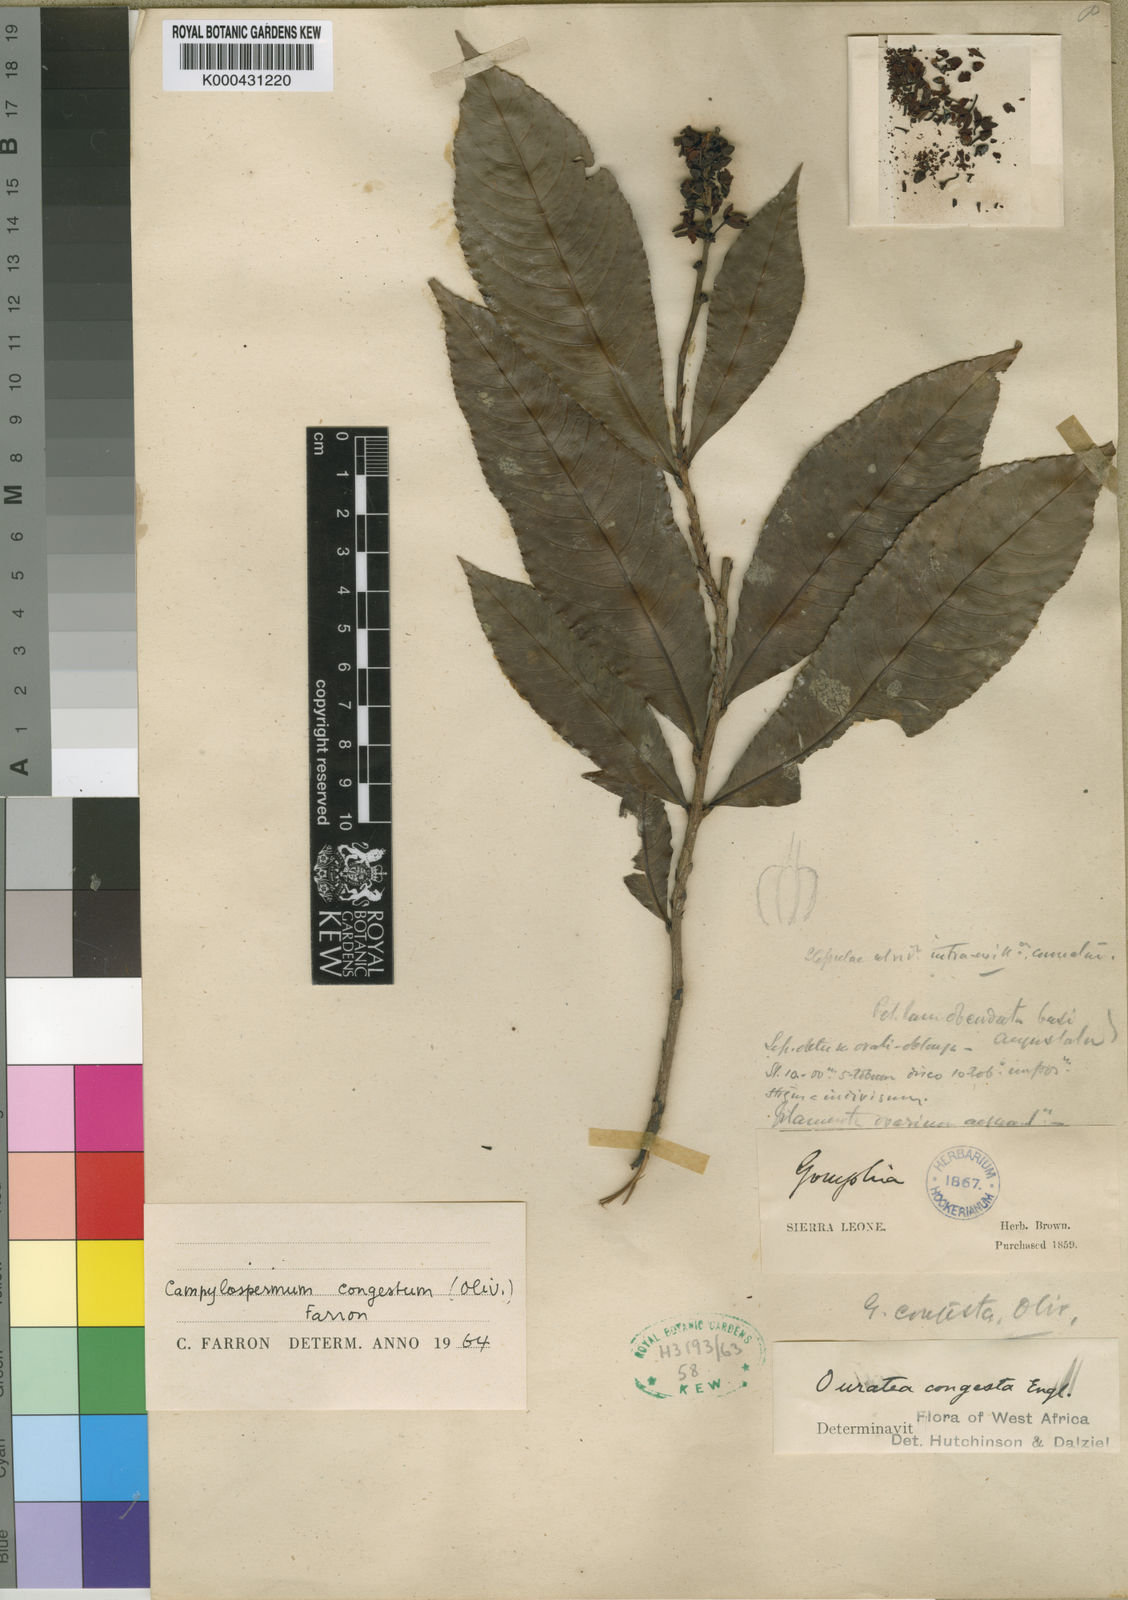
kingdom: Plantae
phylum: Tracheophyta
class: Magnoliopsida
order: Malpighiales
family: Ochnaceae
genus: Campylospermum
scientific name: Campylospermum congestum
